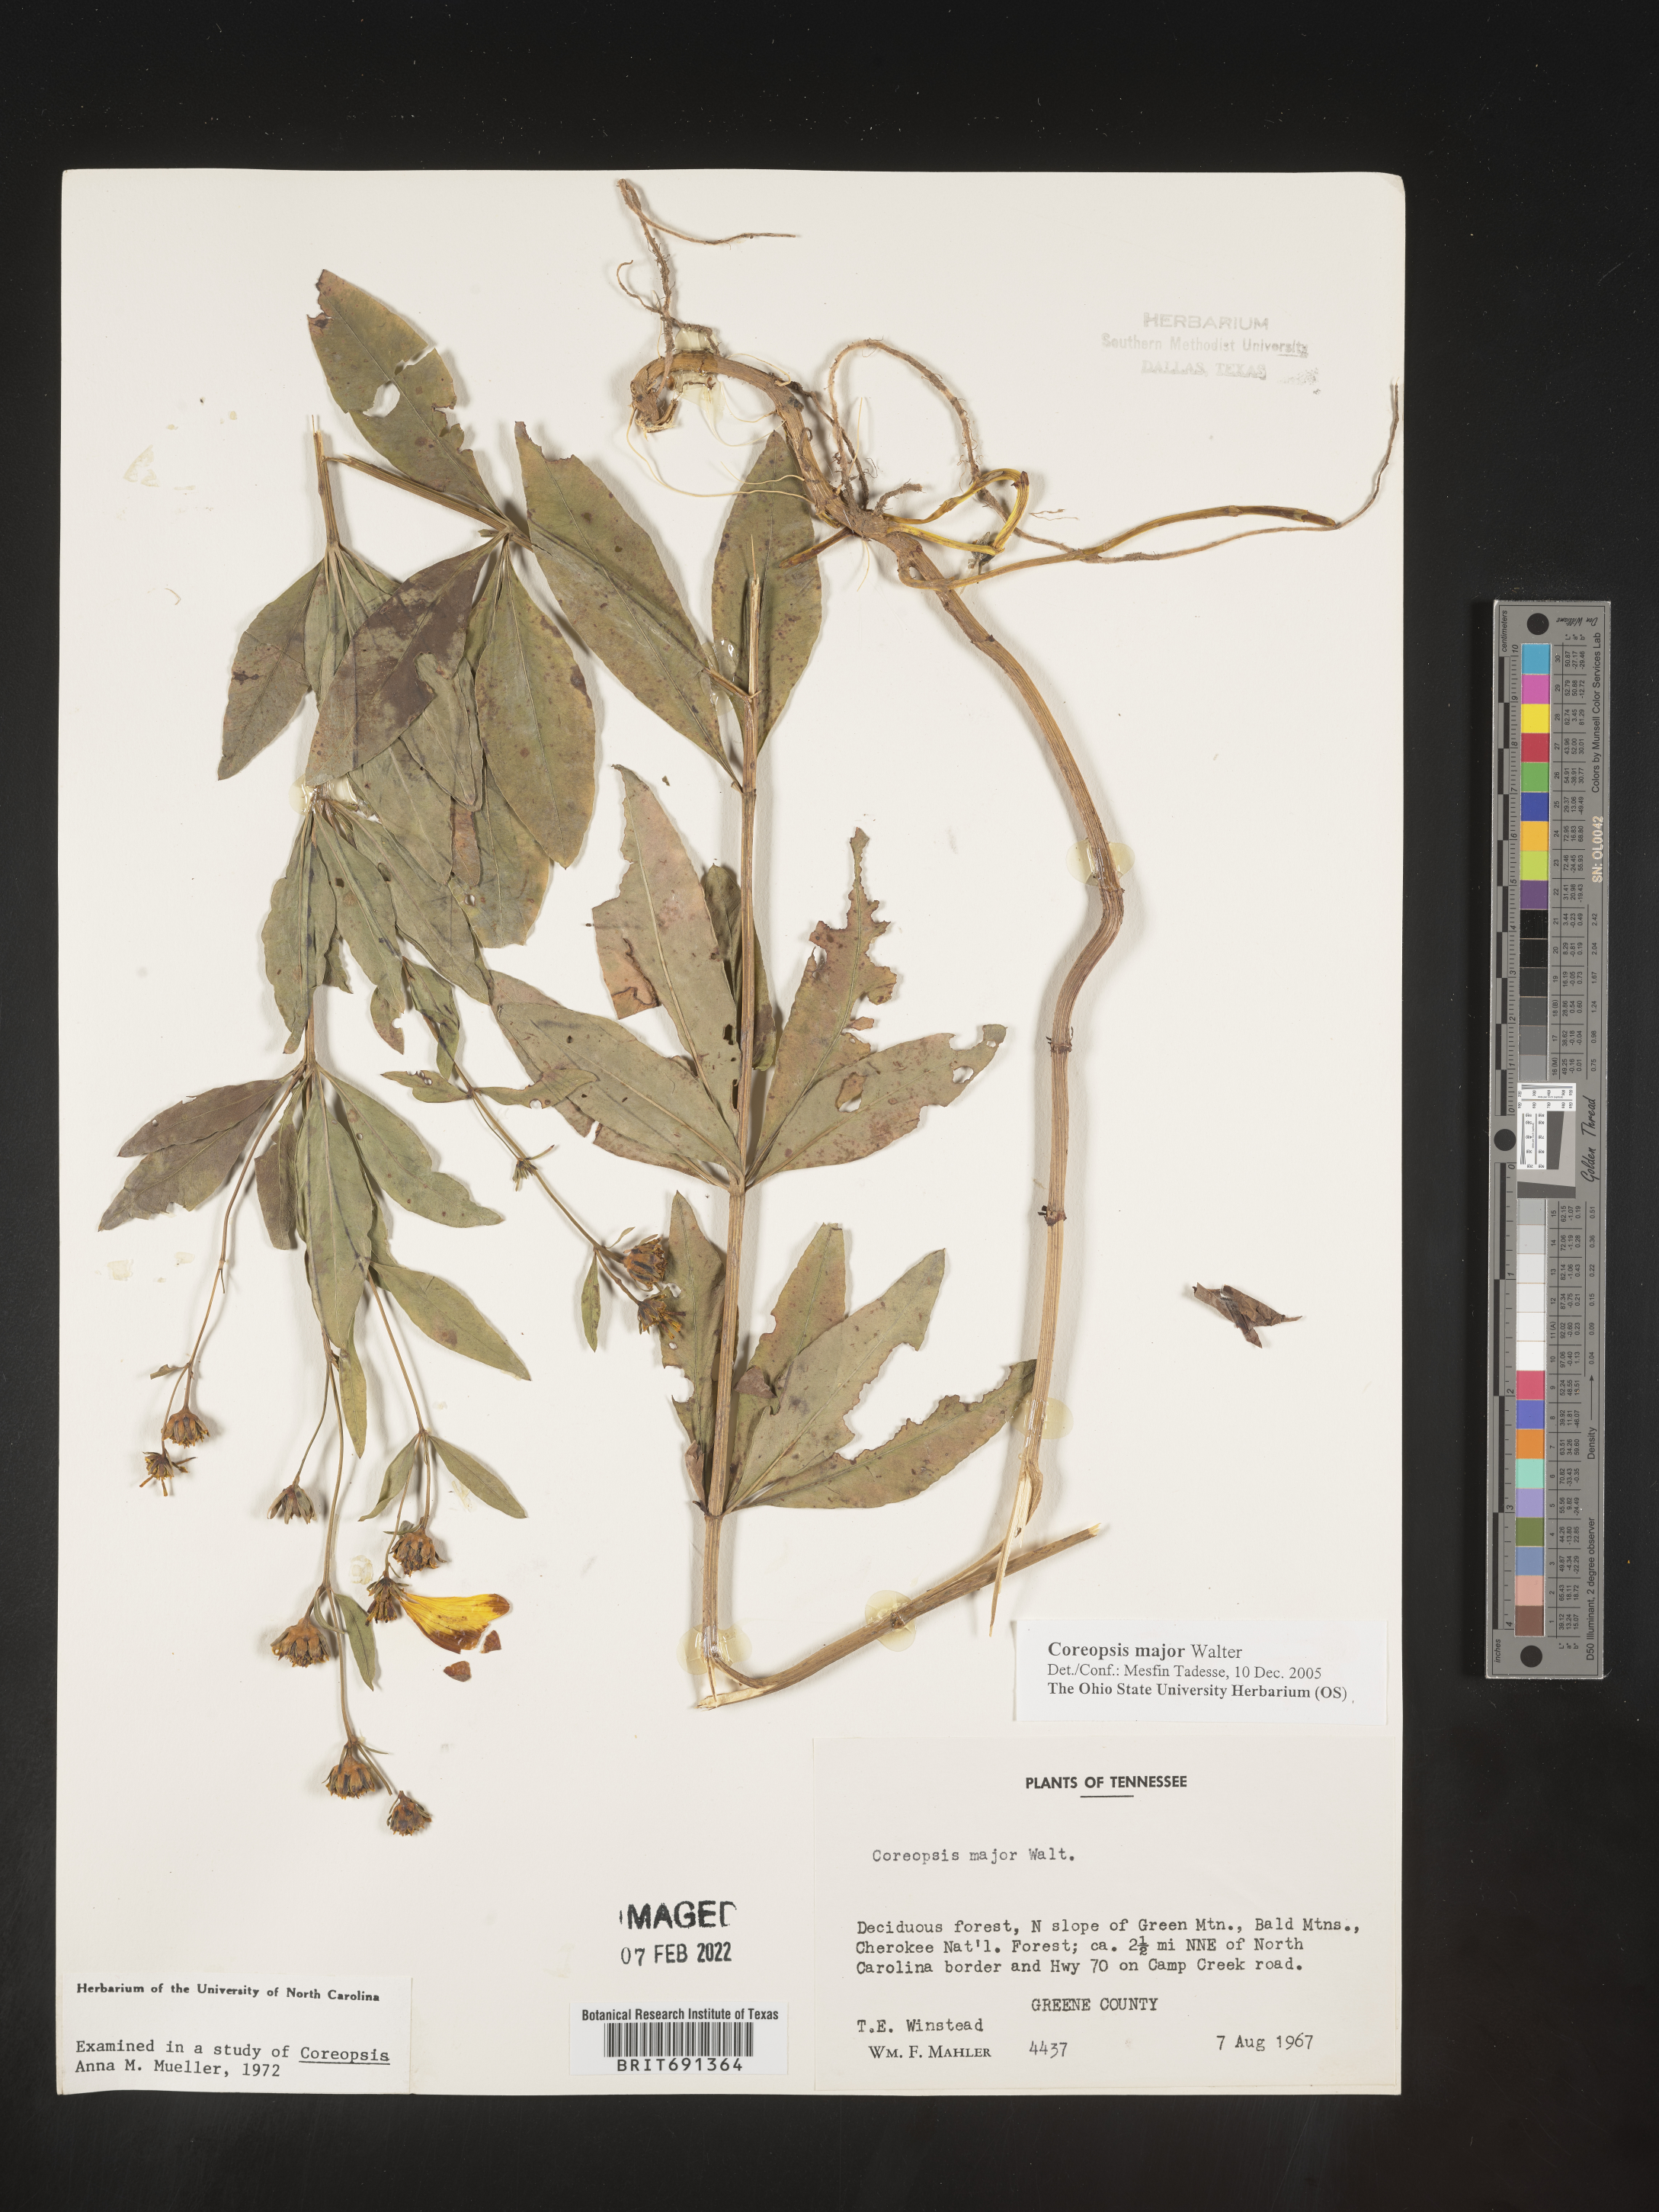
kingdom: Plantae
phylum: Tracheophyta
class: Magnoliopsida
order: Asterales
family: Asteraceae
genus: Coreopsis
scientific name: Coreopsis major
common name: Forest tickseed
